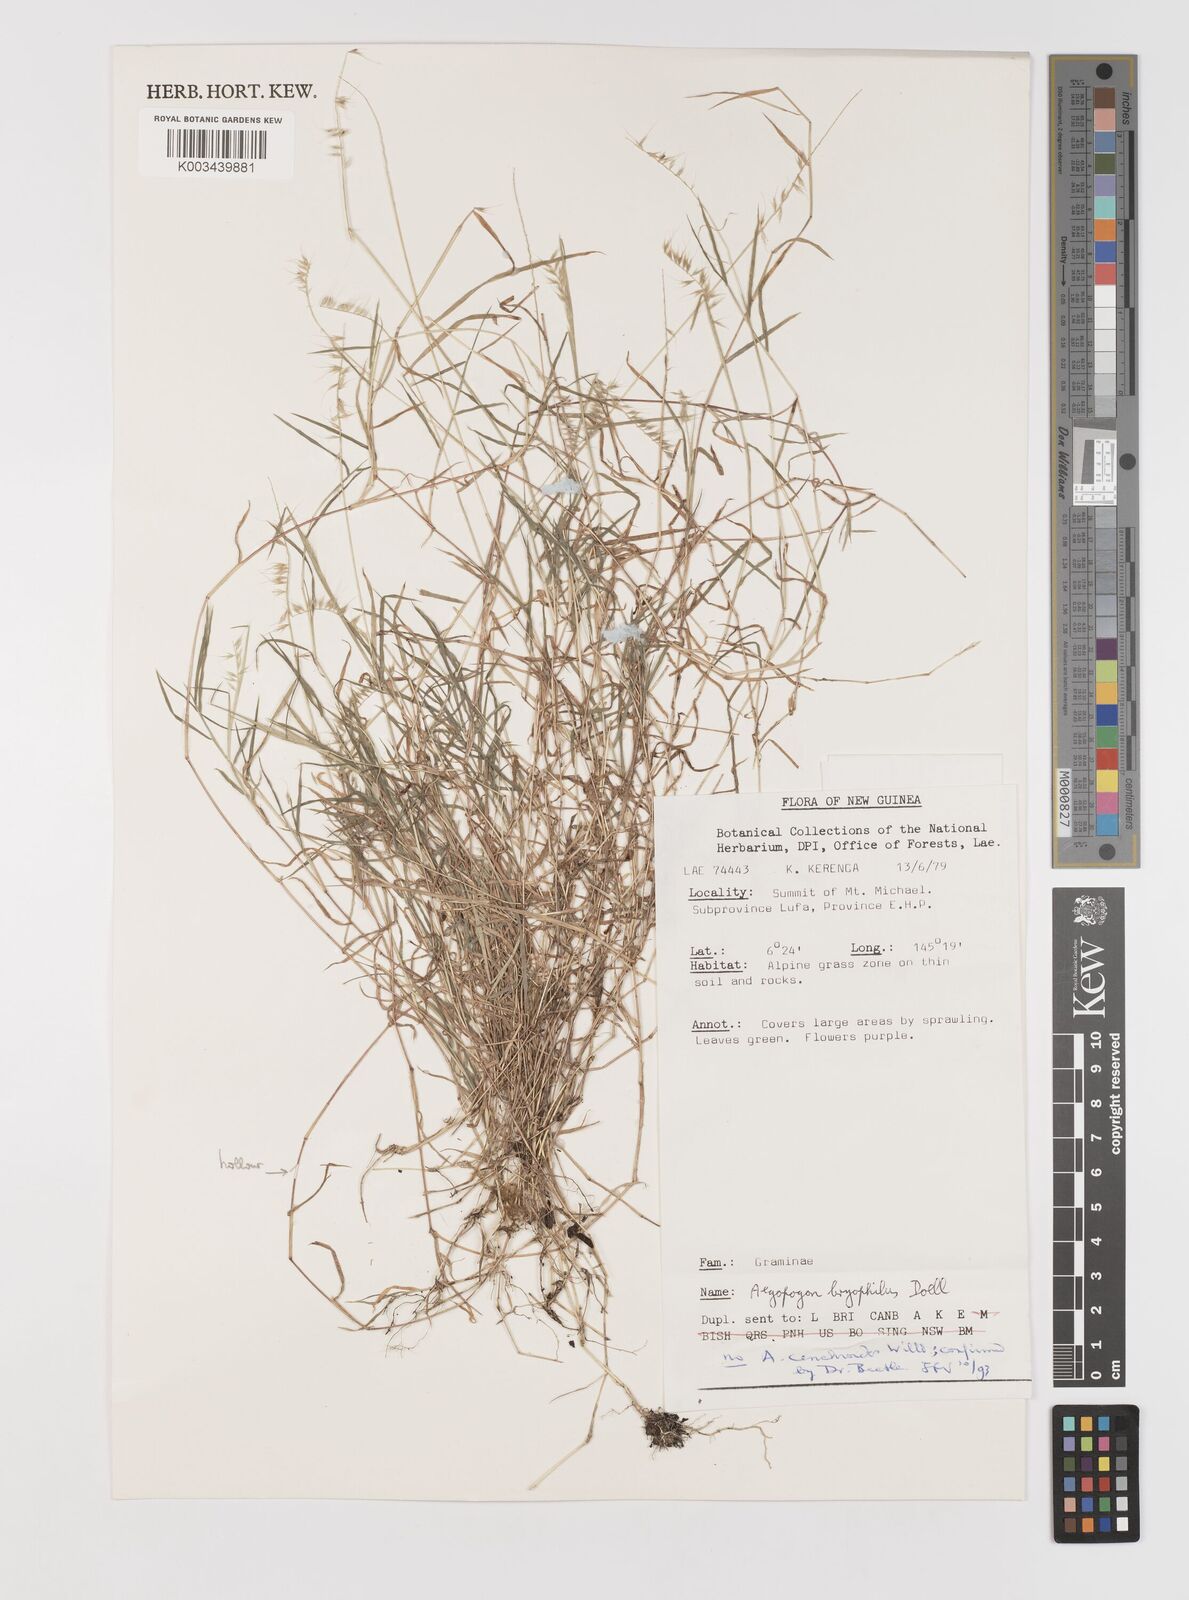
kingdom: Plantae
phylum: Tracheophyta
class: Liliopsida
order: Poales
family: Poaceae
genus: Muhlenbergia
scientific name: Muhlenbergia cenchroides
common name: Relaxgrass
